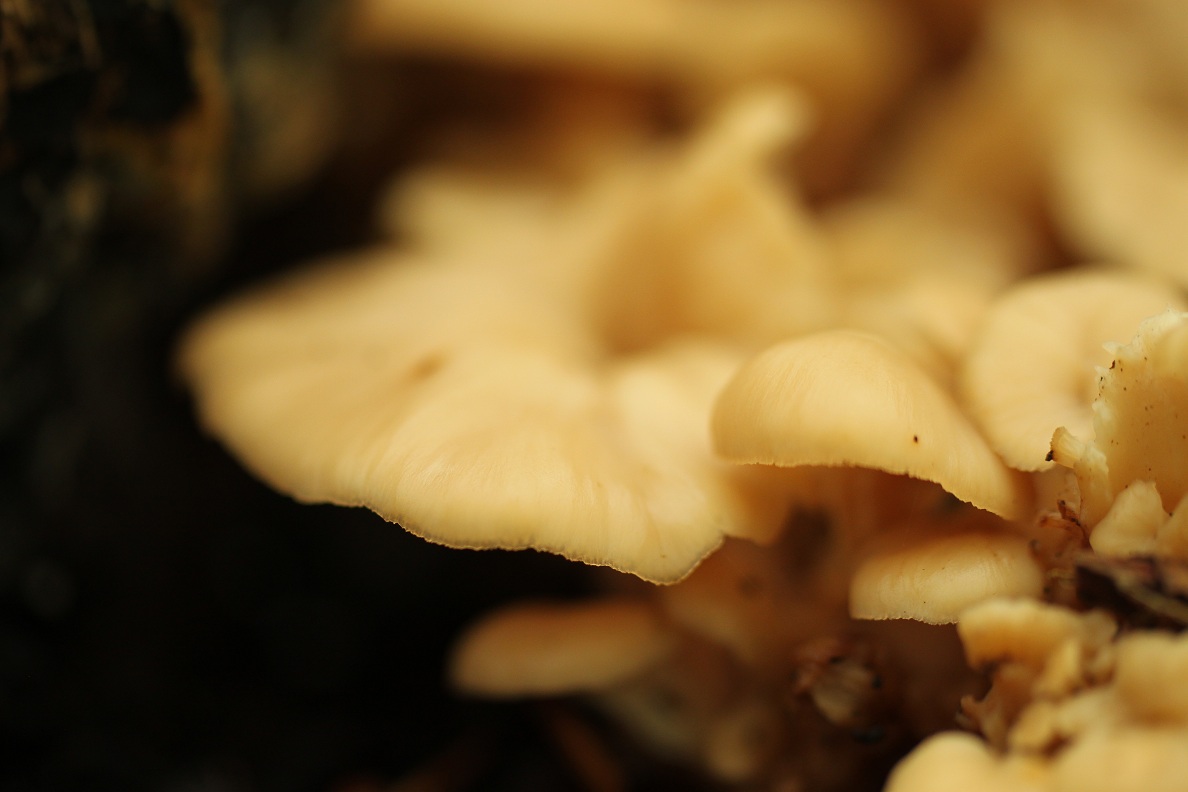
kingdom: Fungi
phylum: Basidiomycota
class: Agaricomycetes
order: Russulales
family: Auriscalpiaceae
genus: Lentinellus
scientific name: Lentinellus cochleatus
